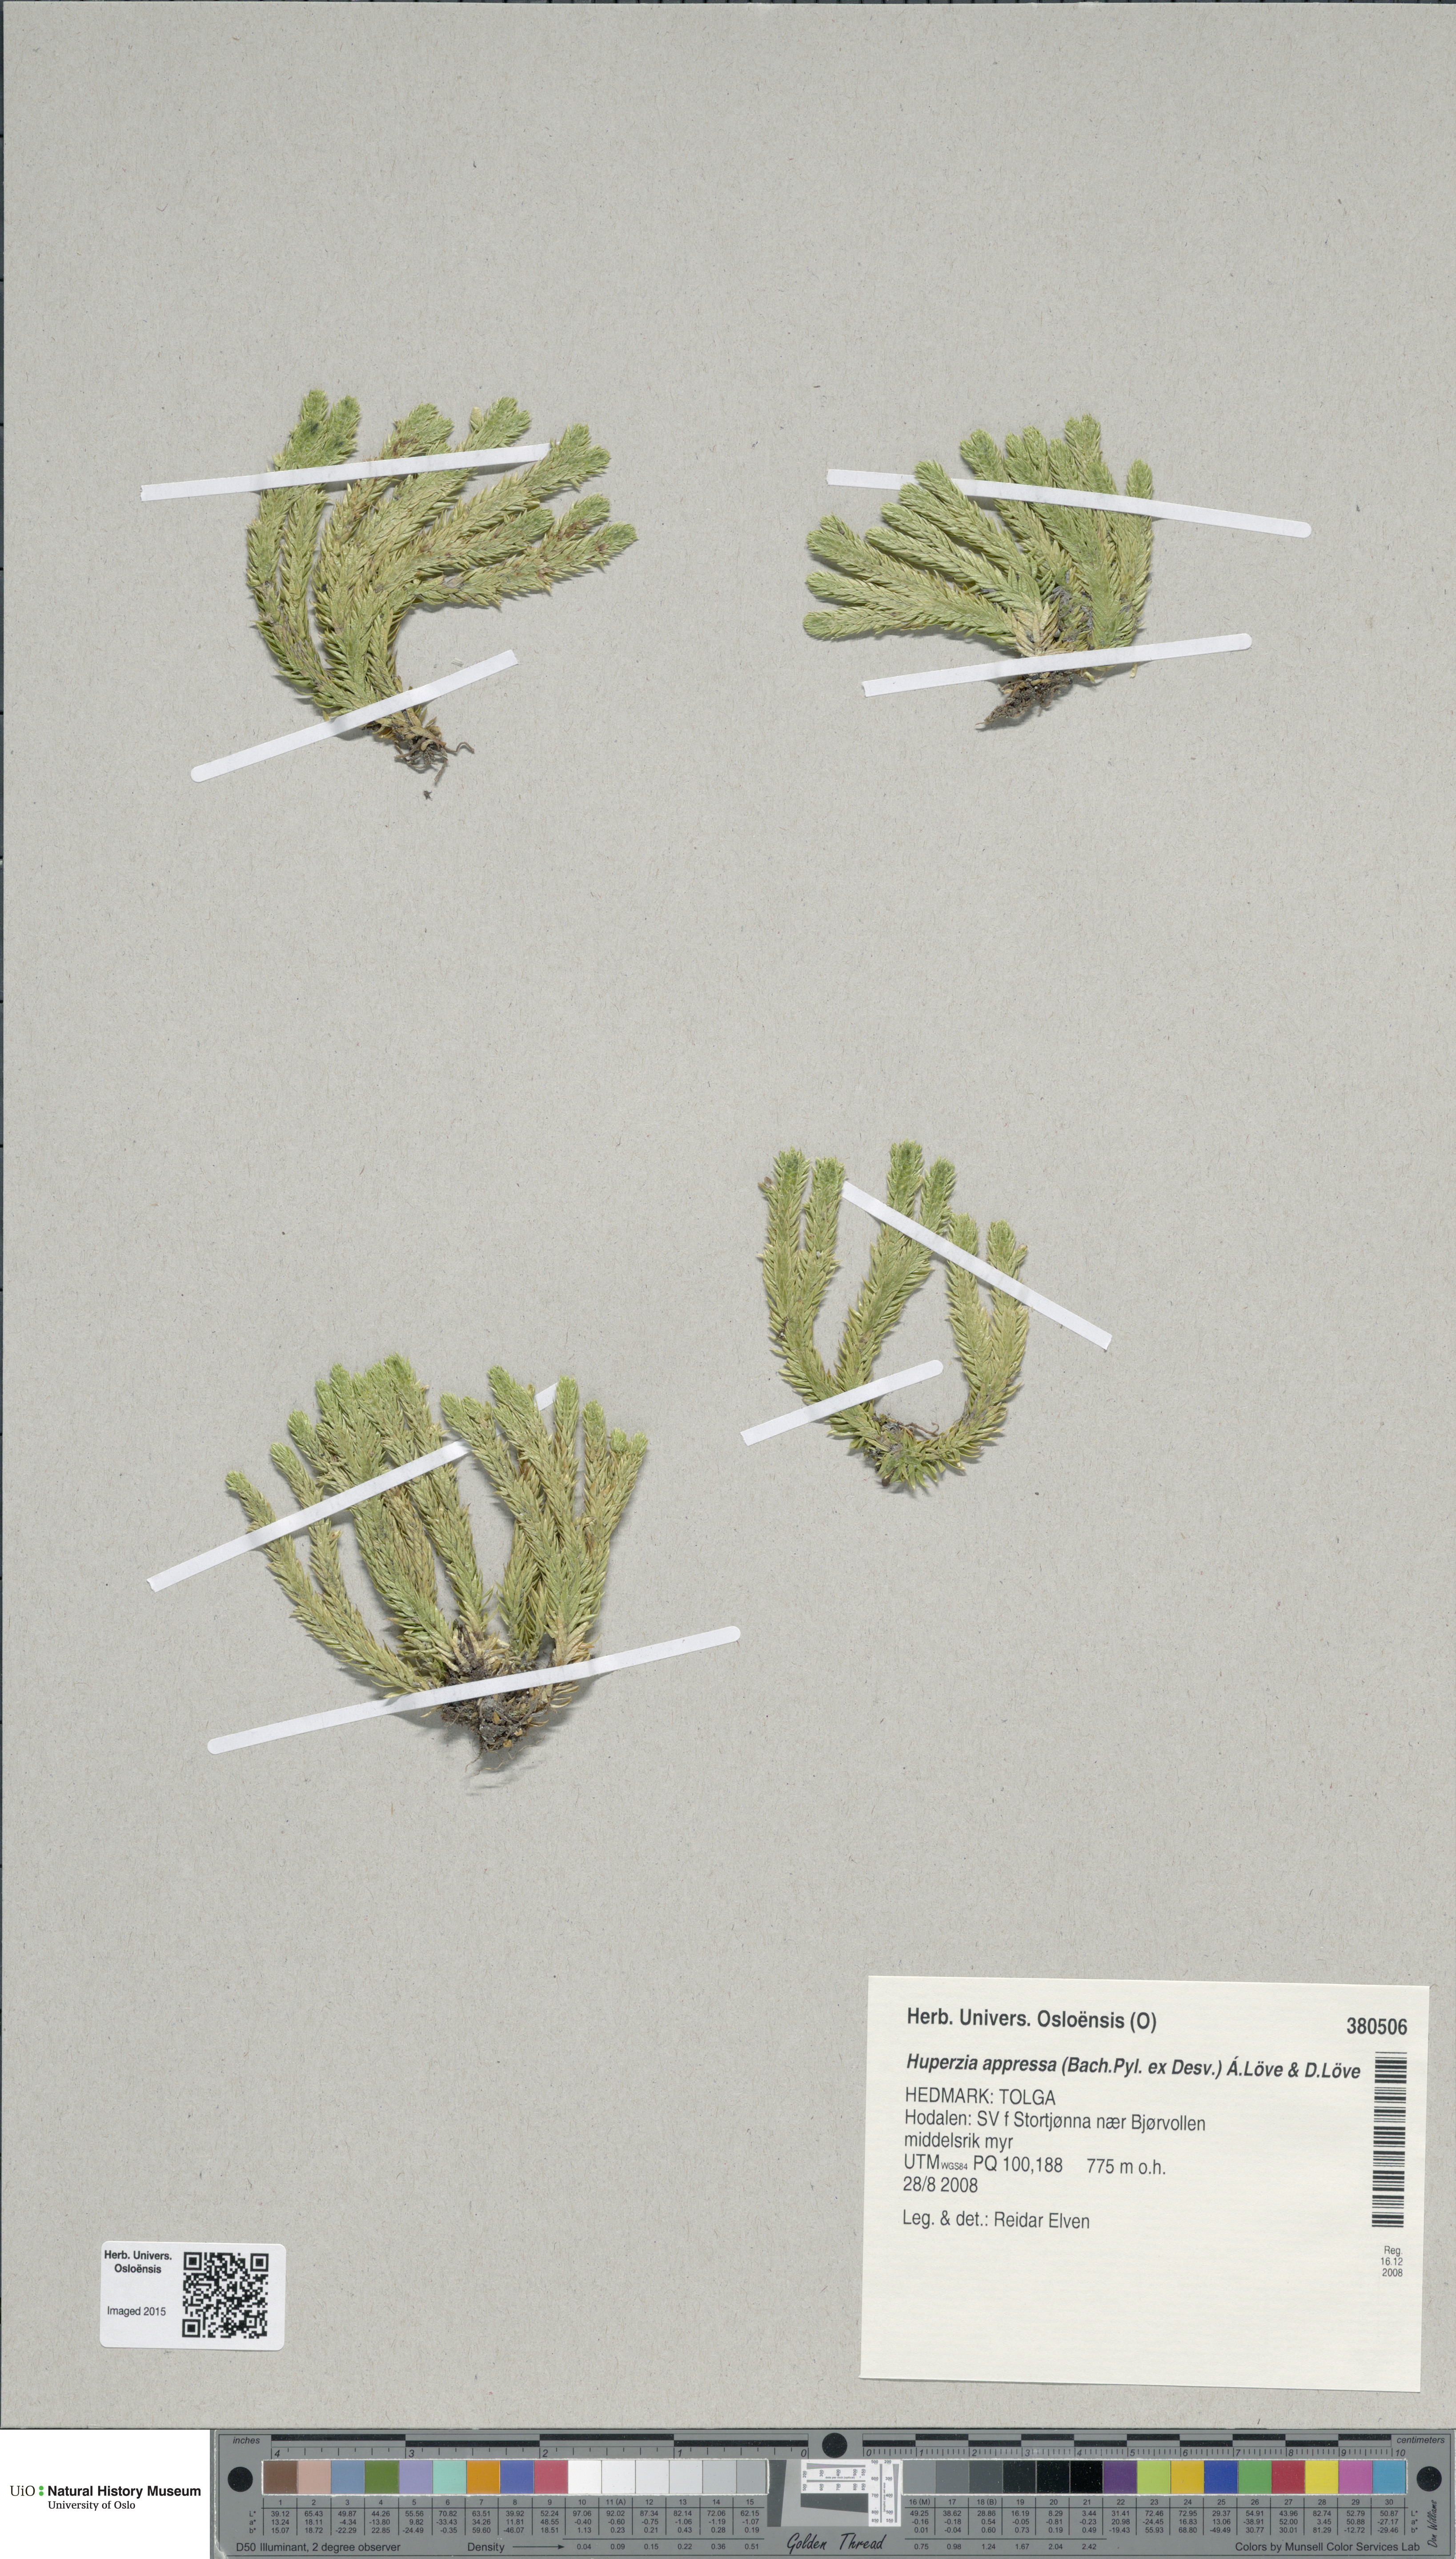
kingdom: Plantae
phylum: Tracheophyta
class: Lycopodiopsida
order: Lycopodiales
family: Lycopodiaceae
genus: Huperzia
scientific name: Huperzia selago
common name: Northern firmoss
